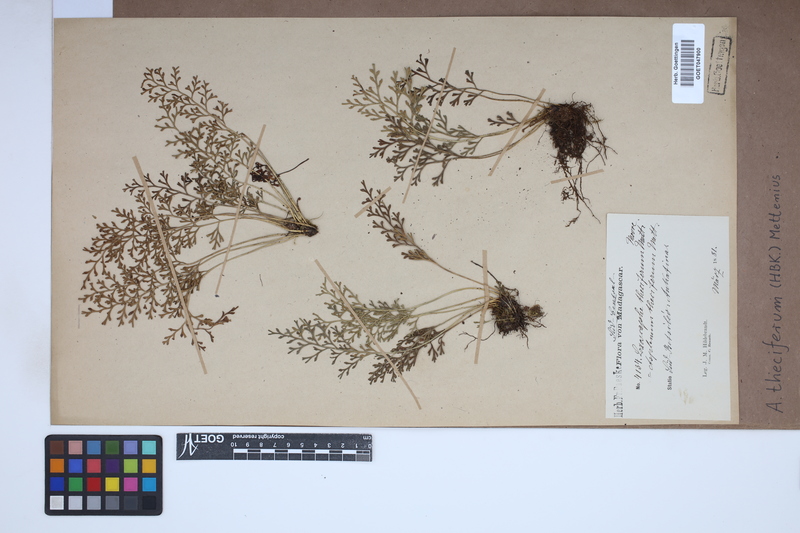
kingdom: Plantae
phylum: Tracheophyta
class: Polypodiopsida
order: Polypodiales
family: Aspleniaceae
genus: Asplenium
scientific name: Asplenium theciferum
